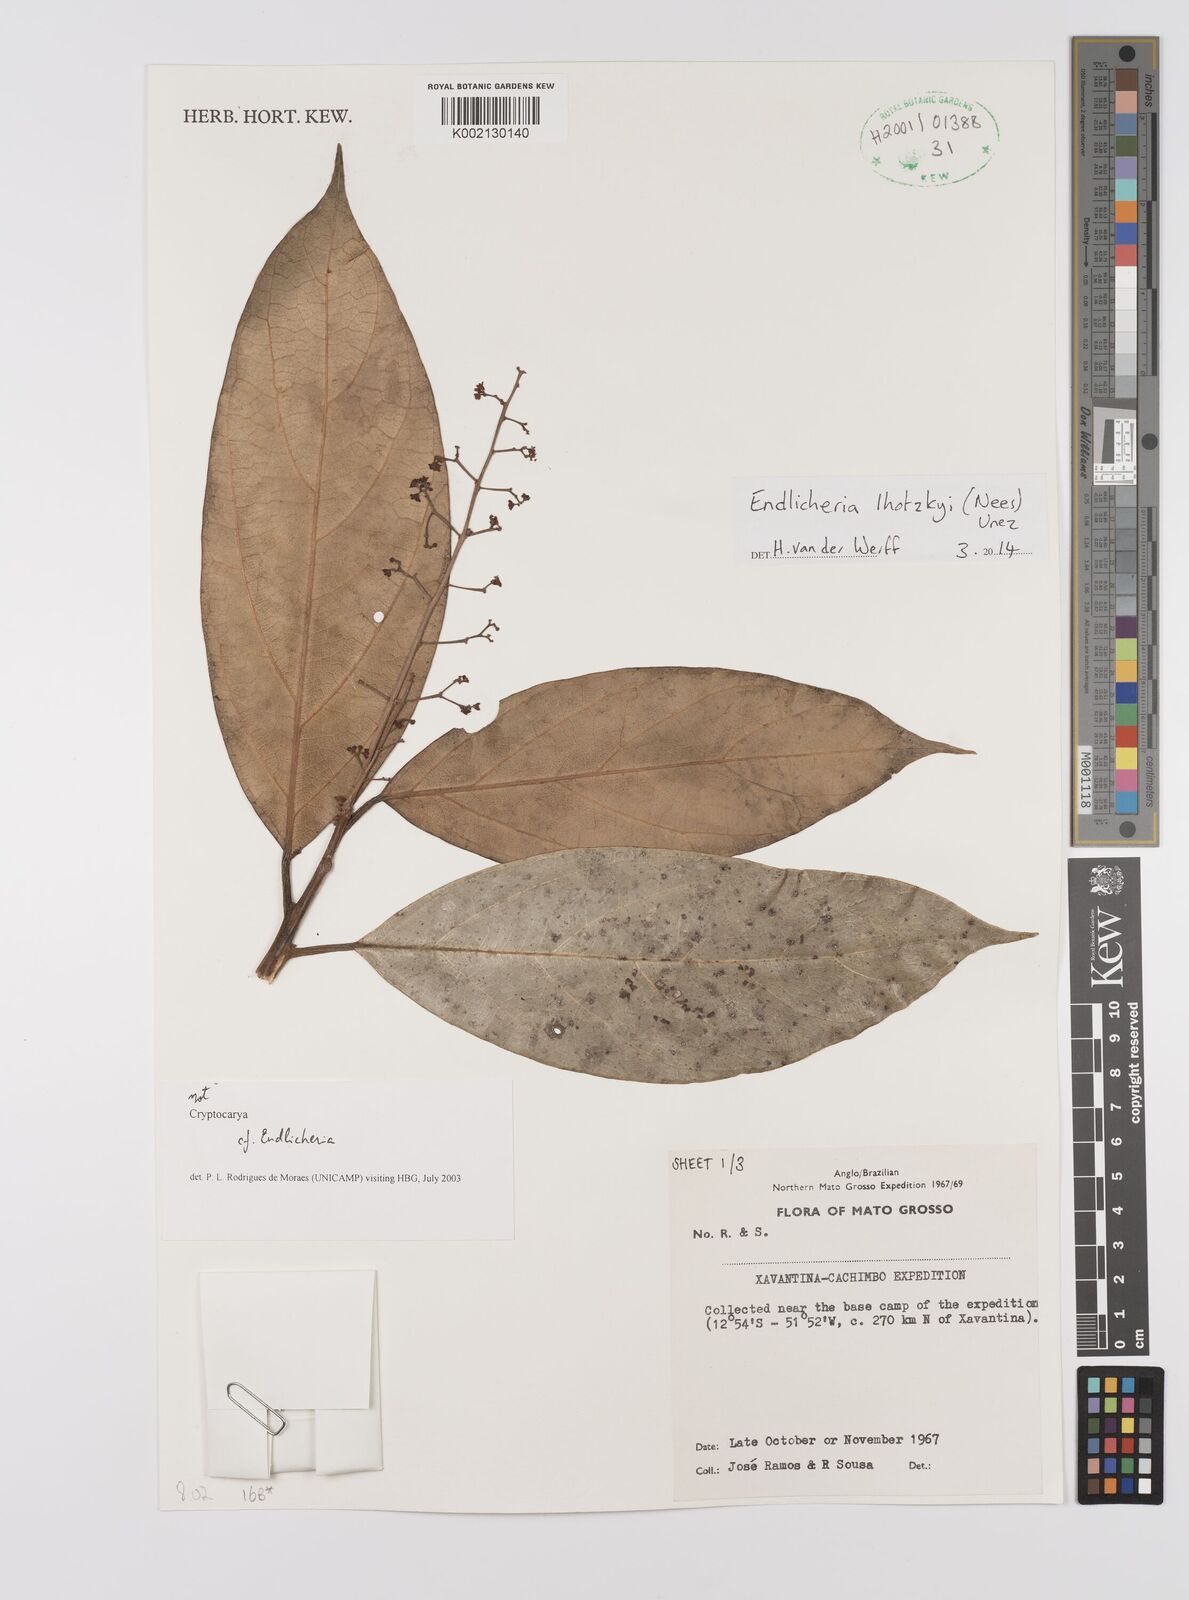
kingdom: Plantae
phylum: Tracheophyta
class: Magnoliopsida
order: Laurales
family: Lauraceae
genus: Endlicheria
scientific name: Endlicheria lhotzkyi
